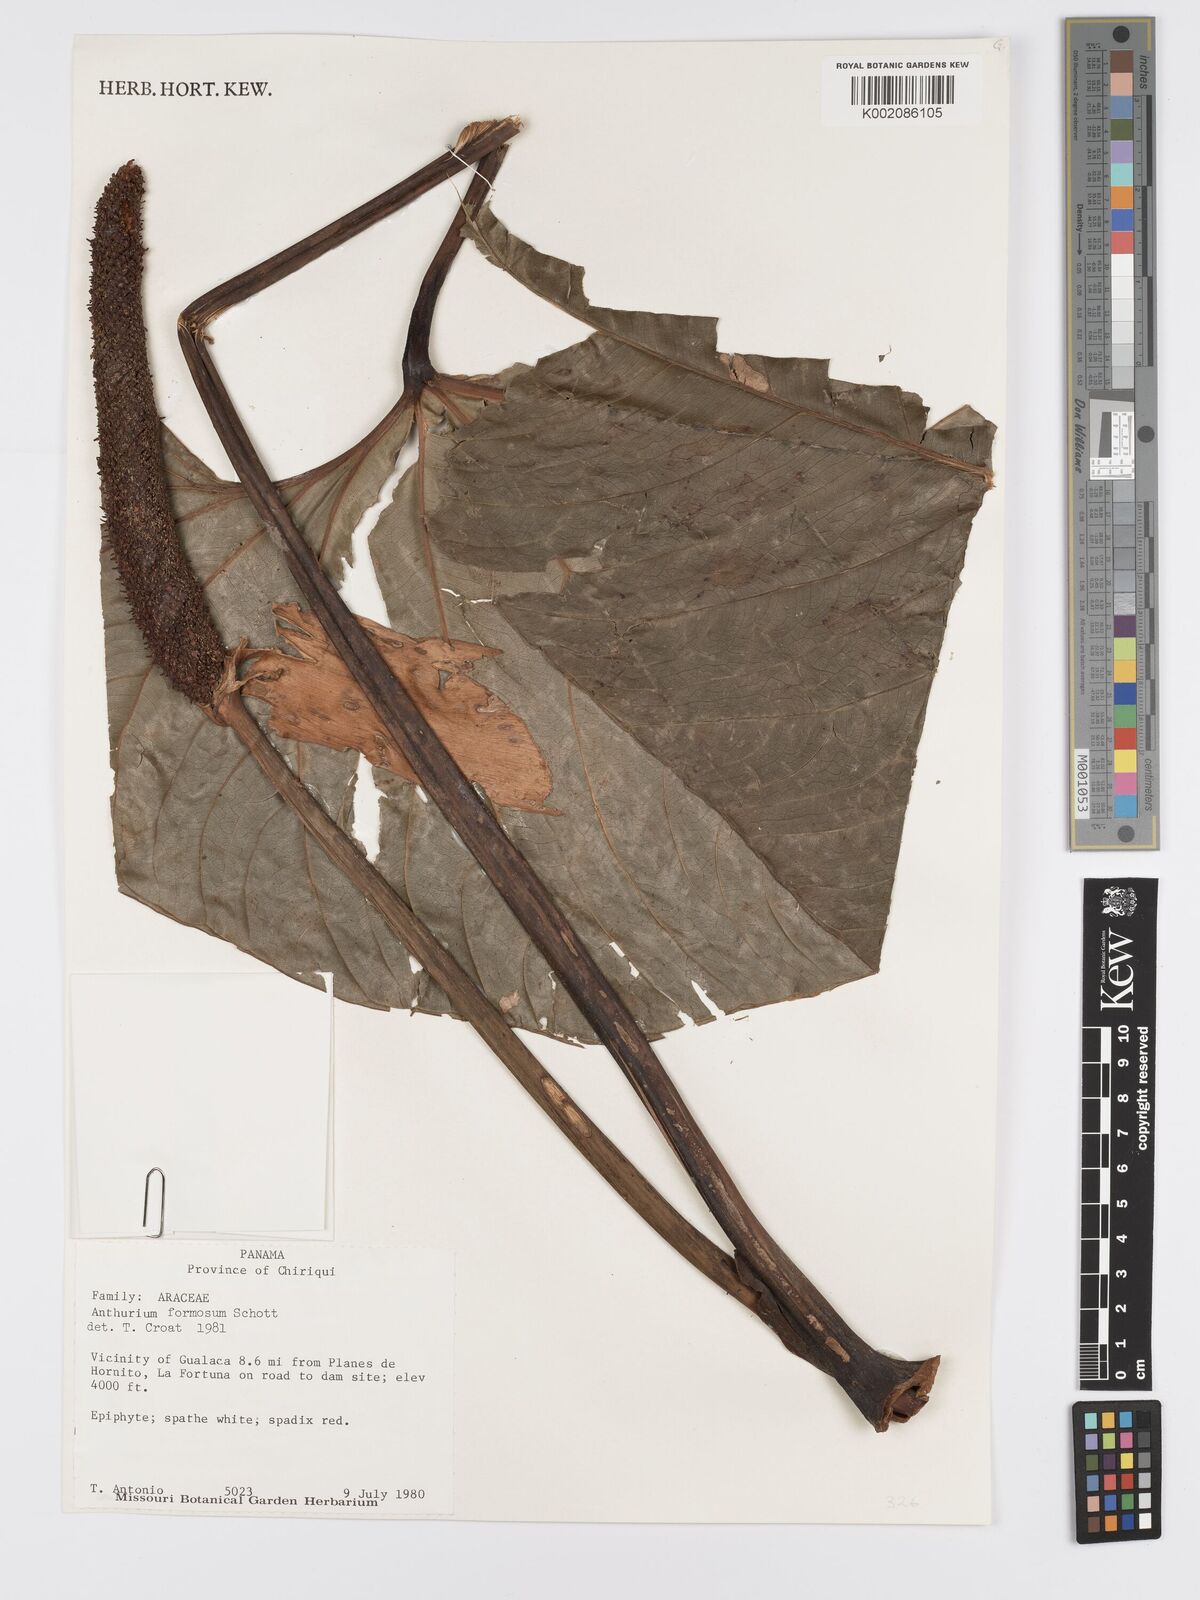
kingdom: Plantae
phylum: Tracheophyta
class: Liliopsida
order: Alismatales
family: Araceae
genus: Anthurium
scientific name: Anthurium formosum
